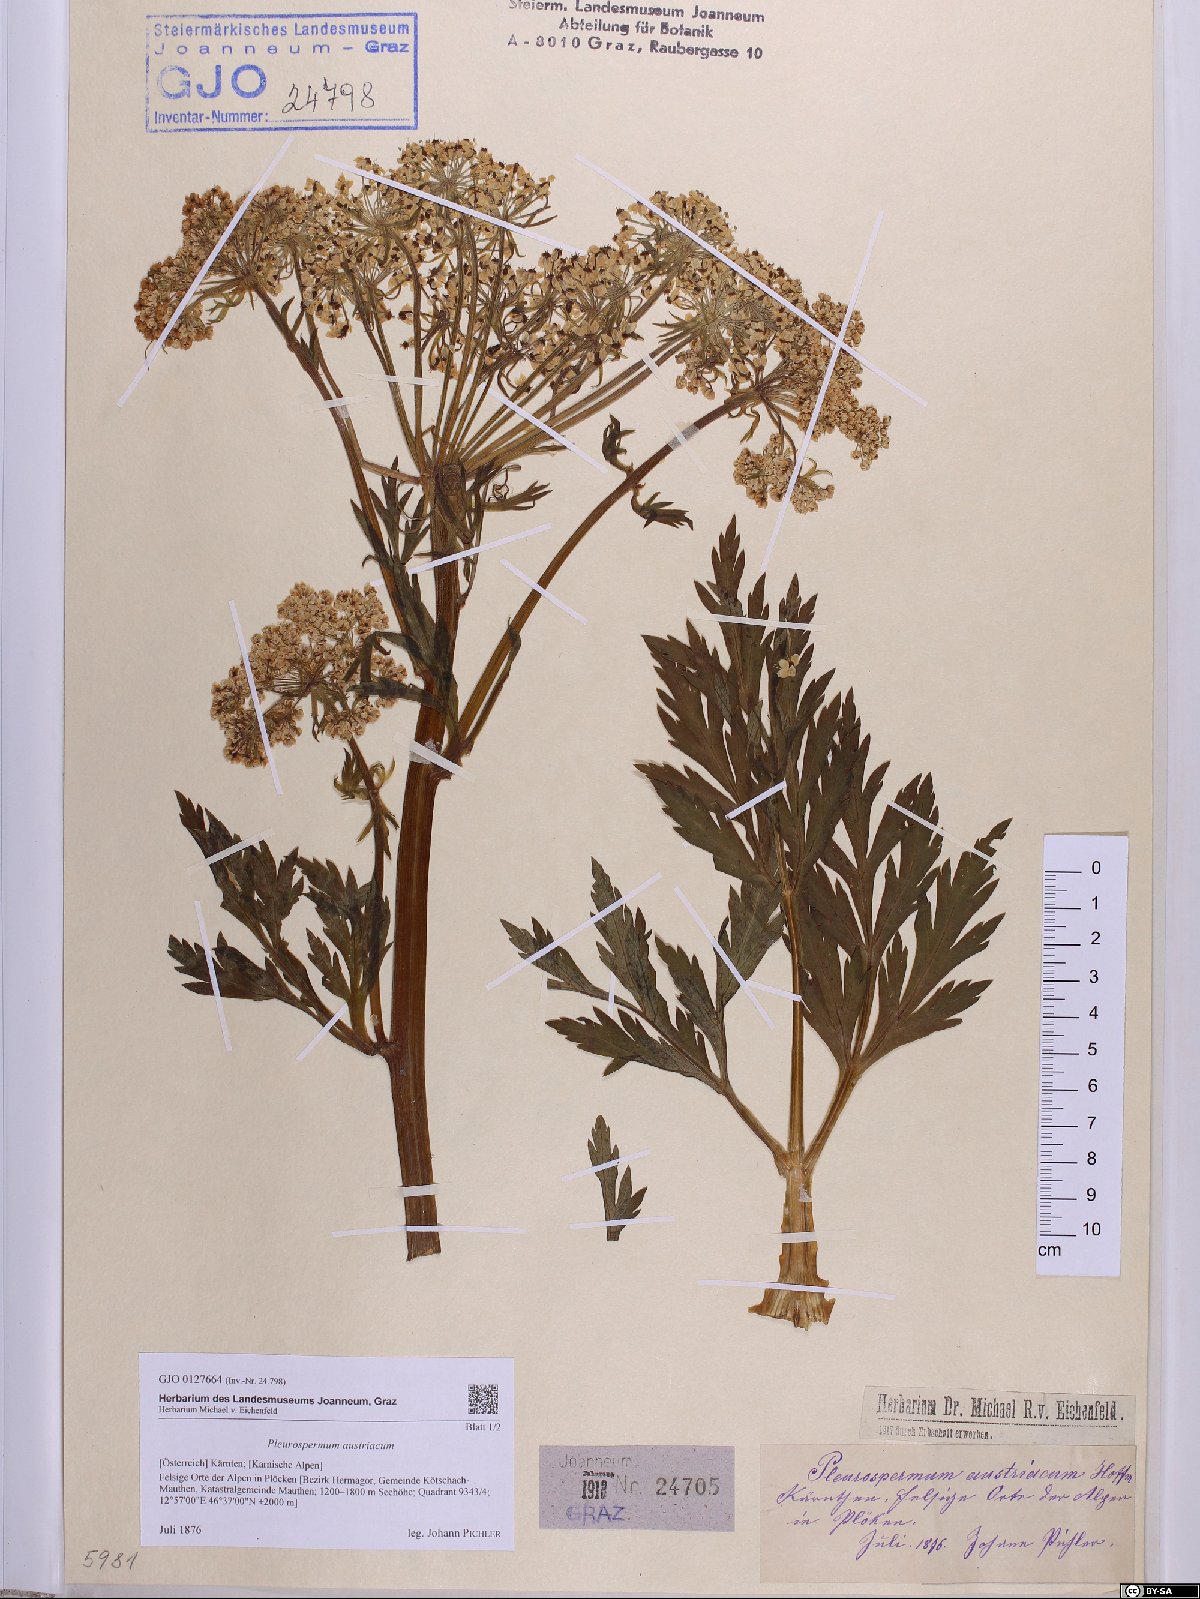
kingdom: Plantae
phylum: Tracheophyta
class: Magnoliopsida
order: Apiales
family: Apiaceae
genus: Pleurospermum
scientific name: Pleurospermum austriacum
